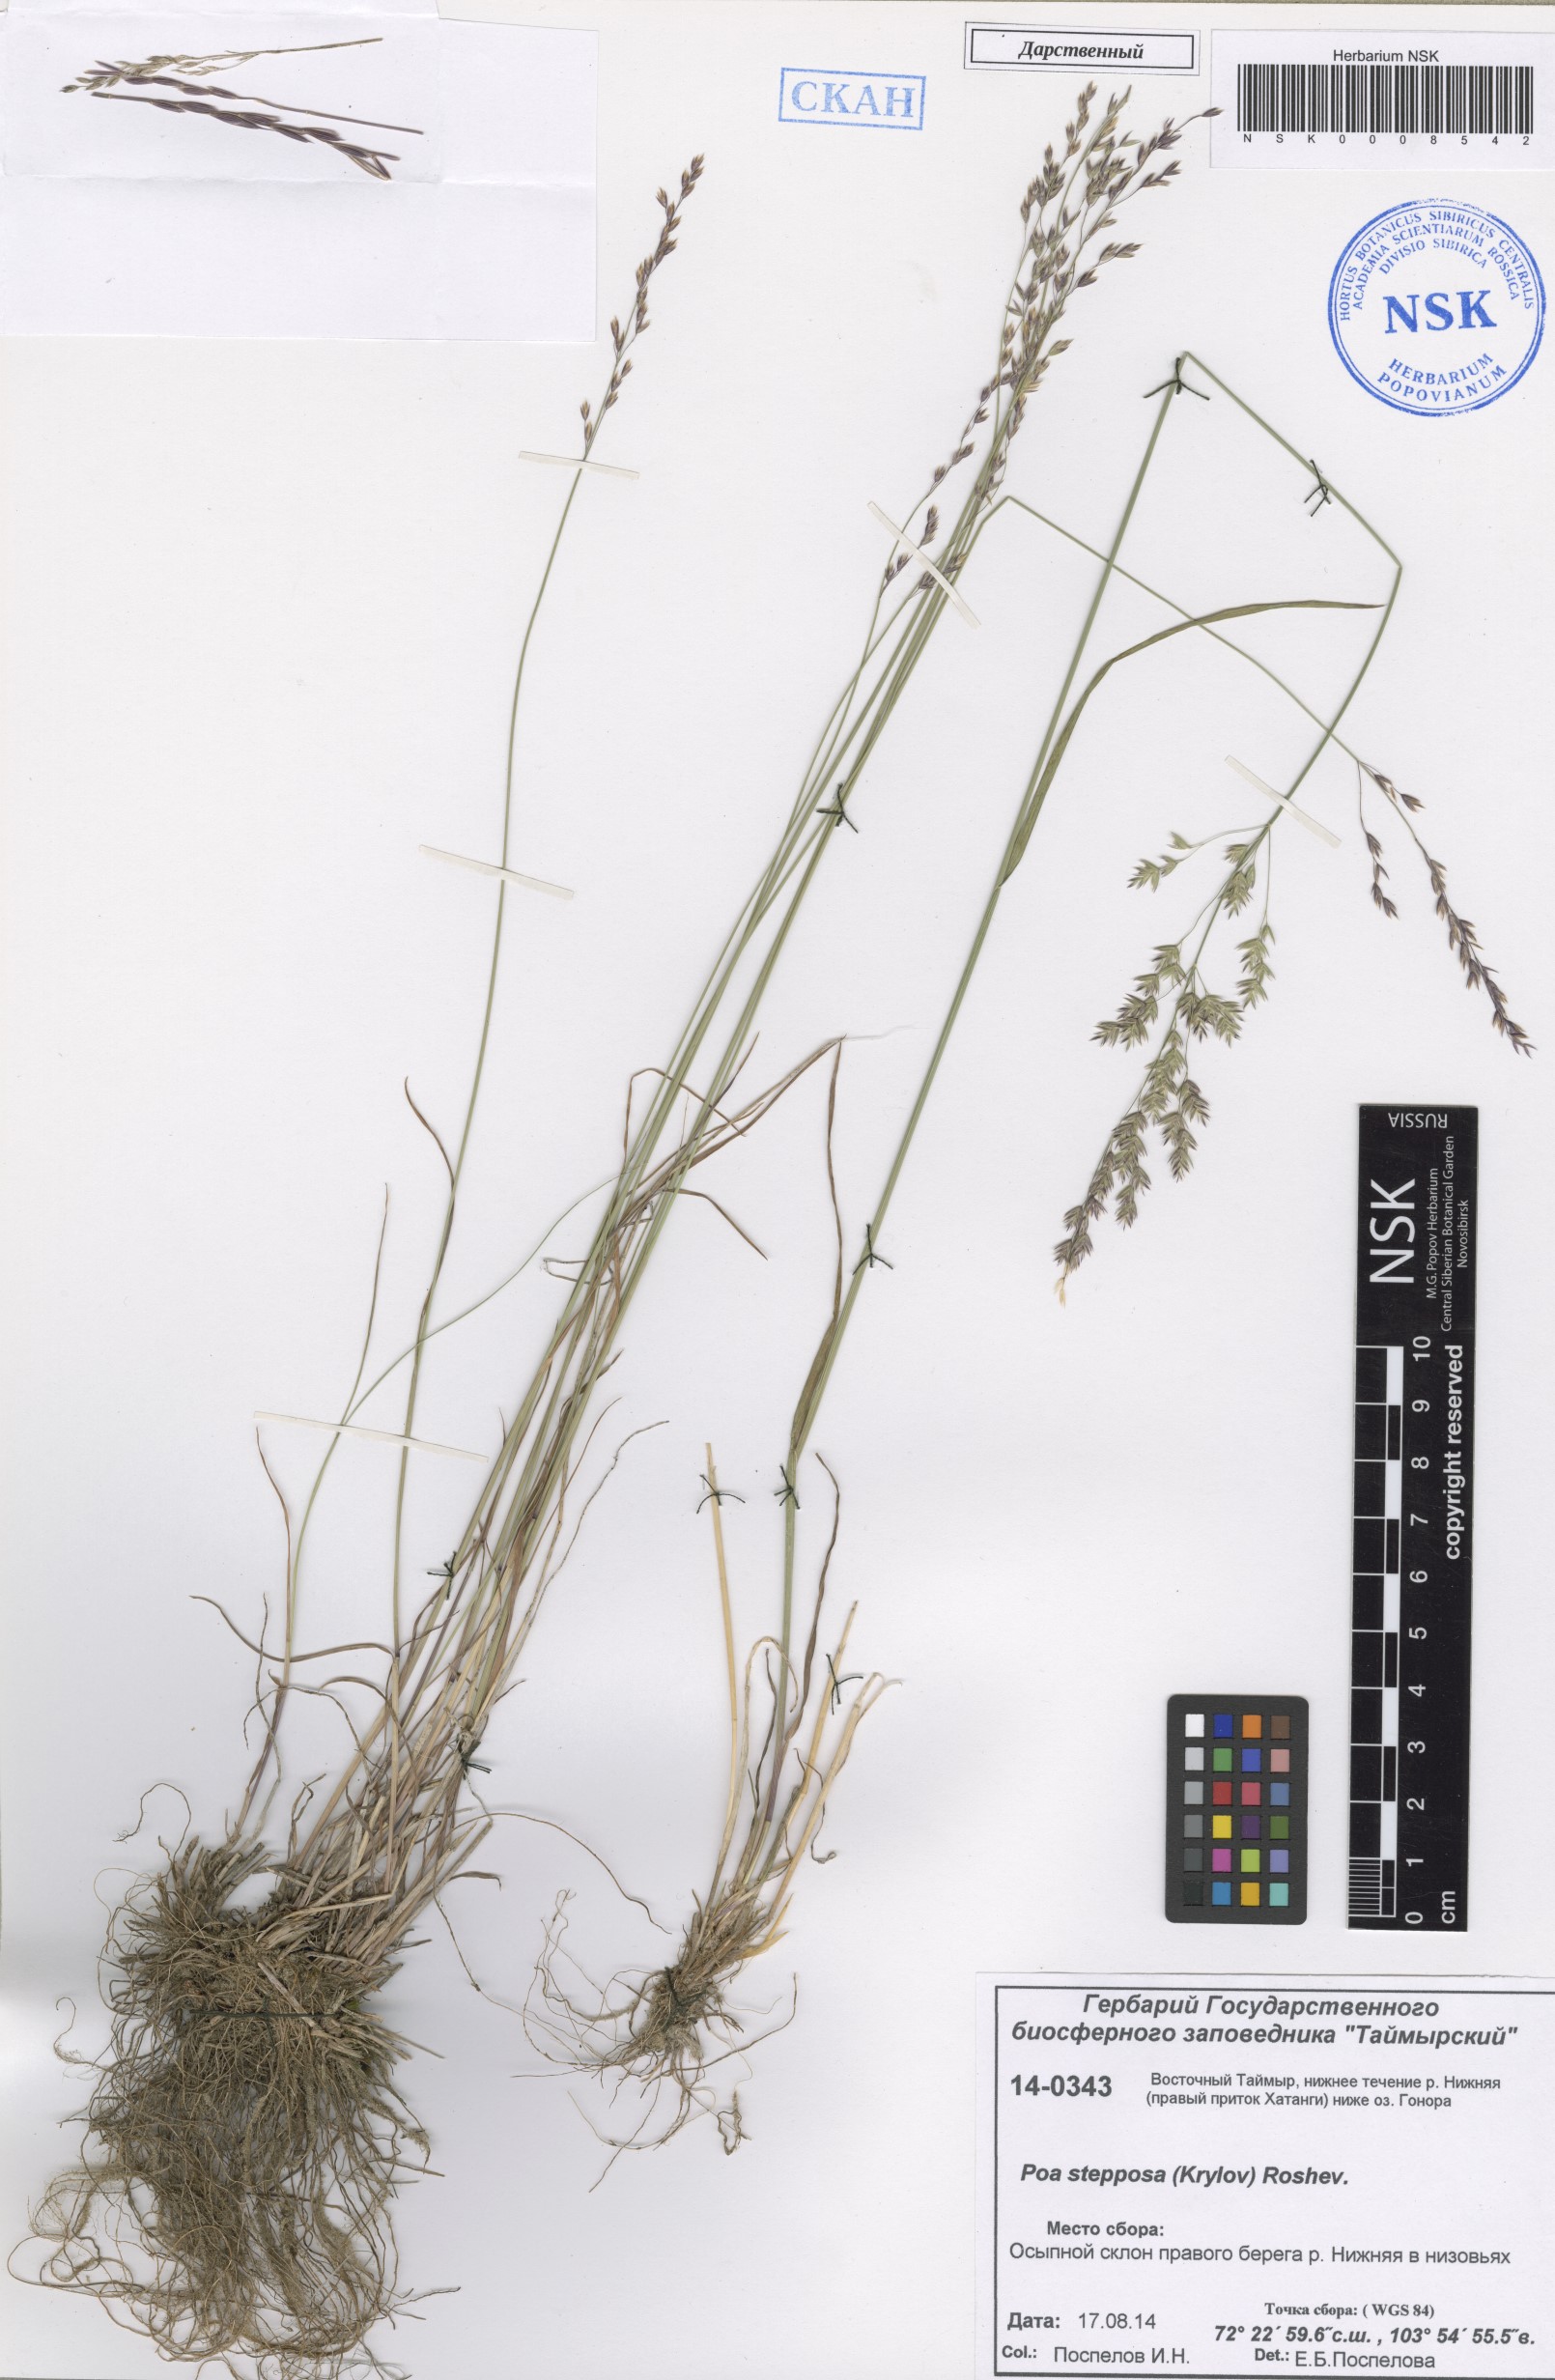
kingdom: Plantae
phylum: Tracheophyta
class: Liliopsida
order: Poales
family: Poaceae
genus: Poa
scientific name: Poa versicolor
